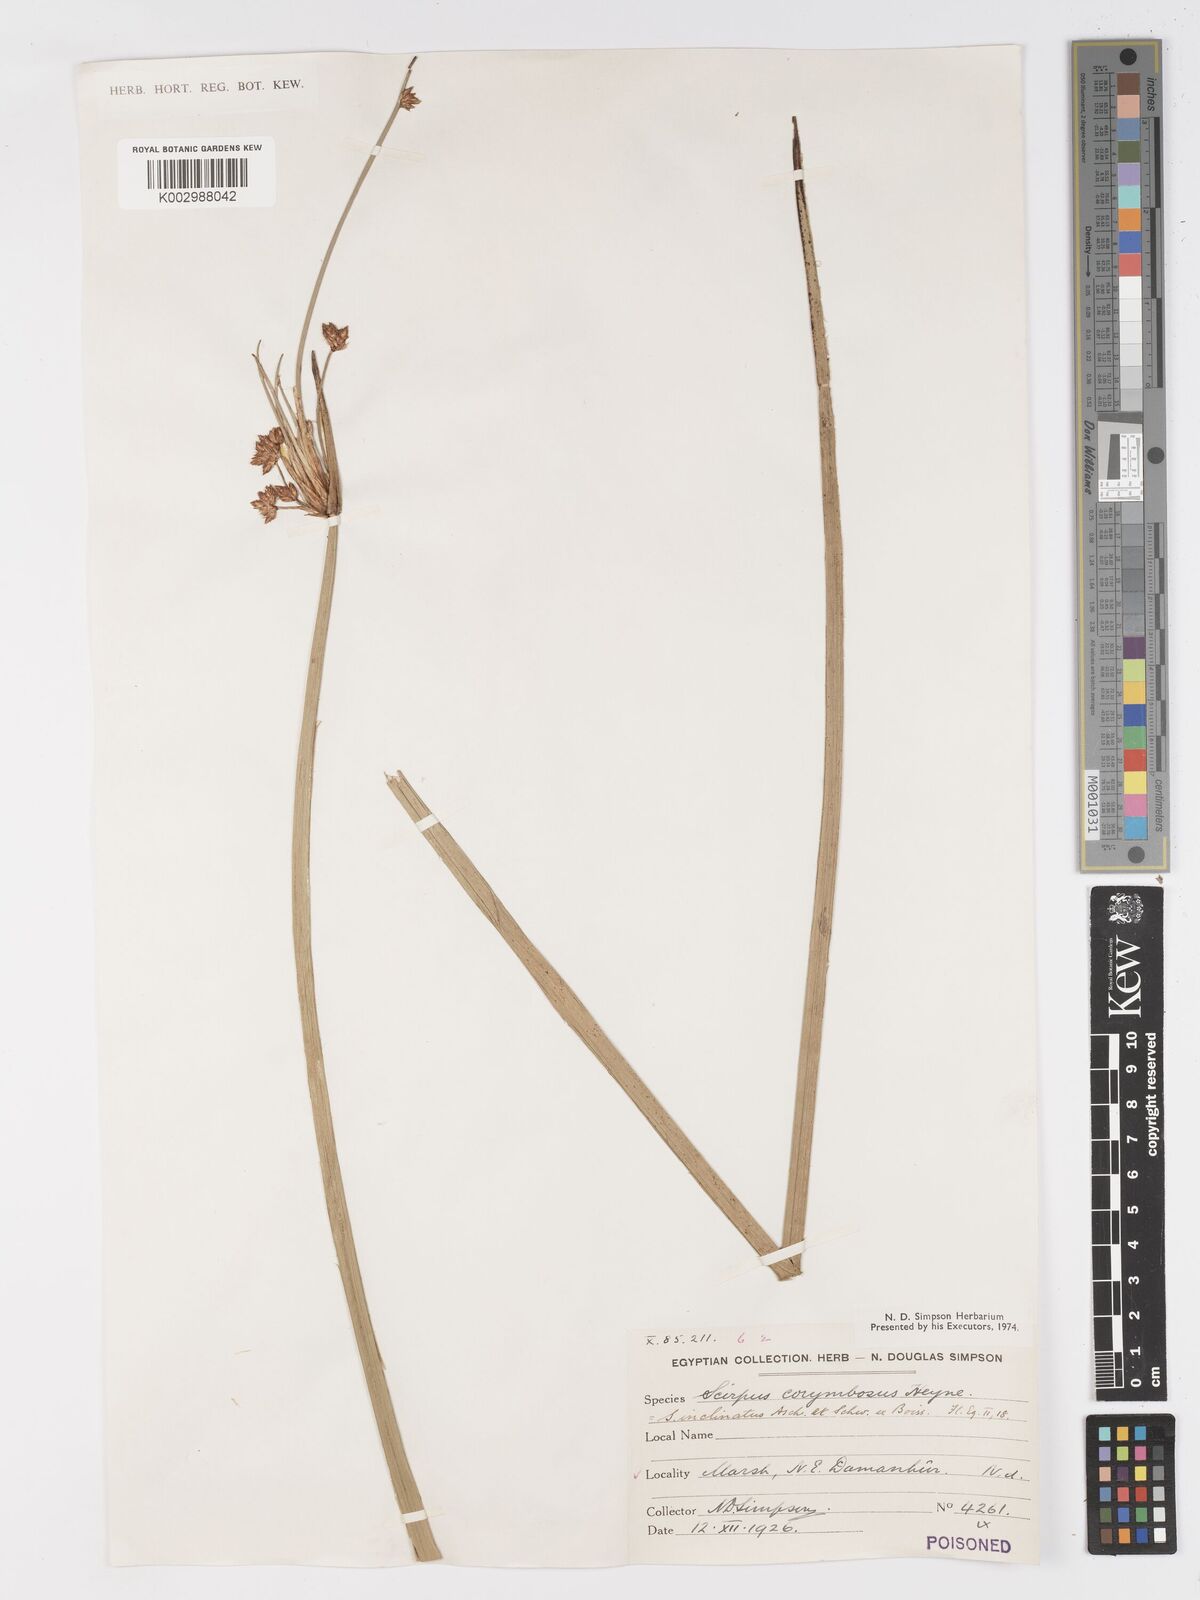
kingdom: Plantae
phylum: Tracheophyta
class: Liliopsida
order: Poales
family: Cyperaceae
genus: Schoenoplectiella
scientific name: Schoenoplectiella corymbosa
